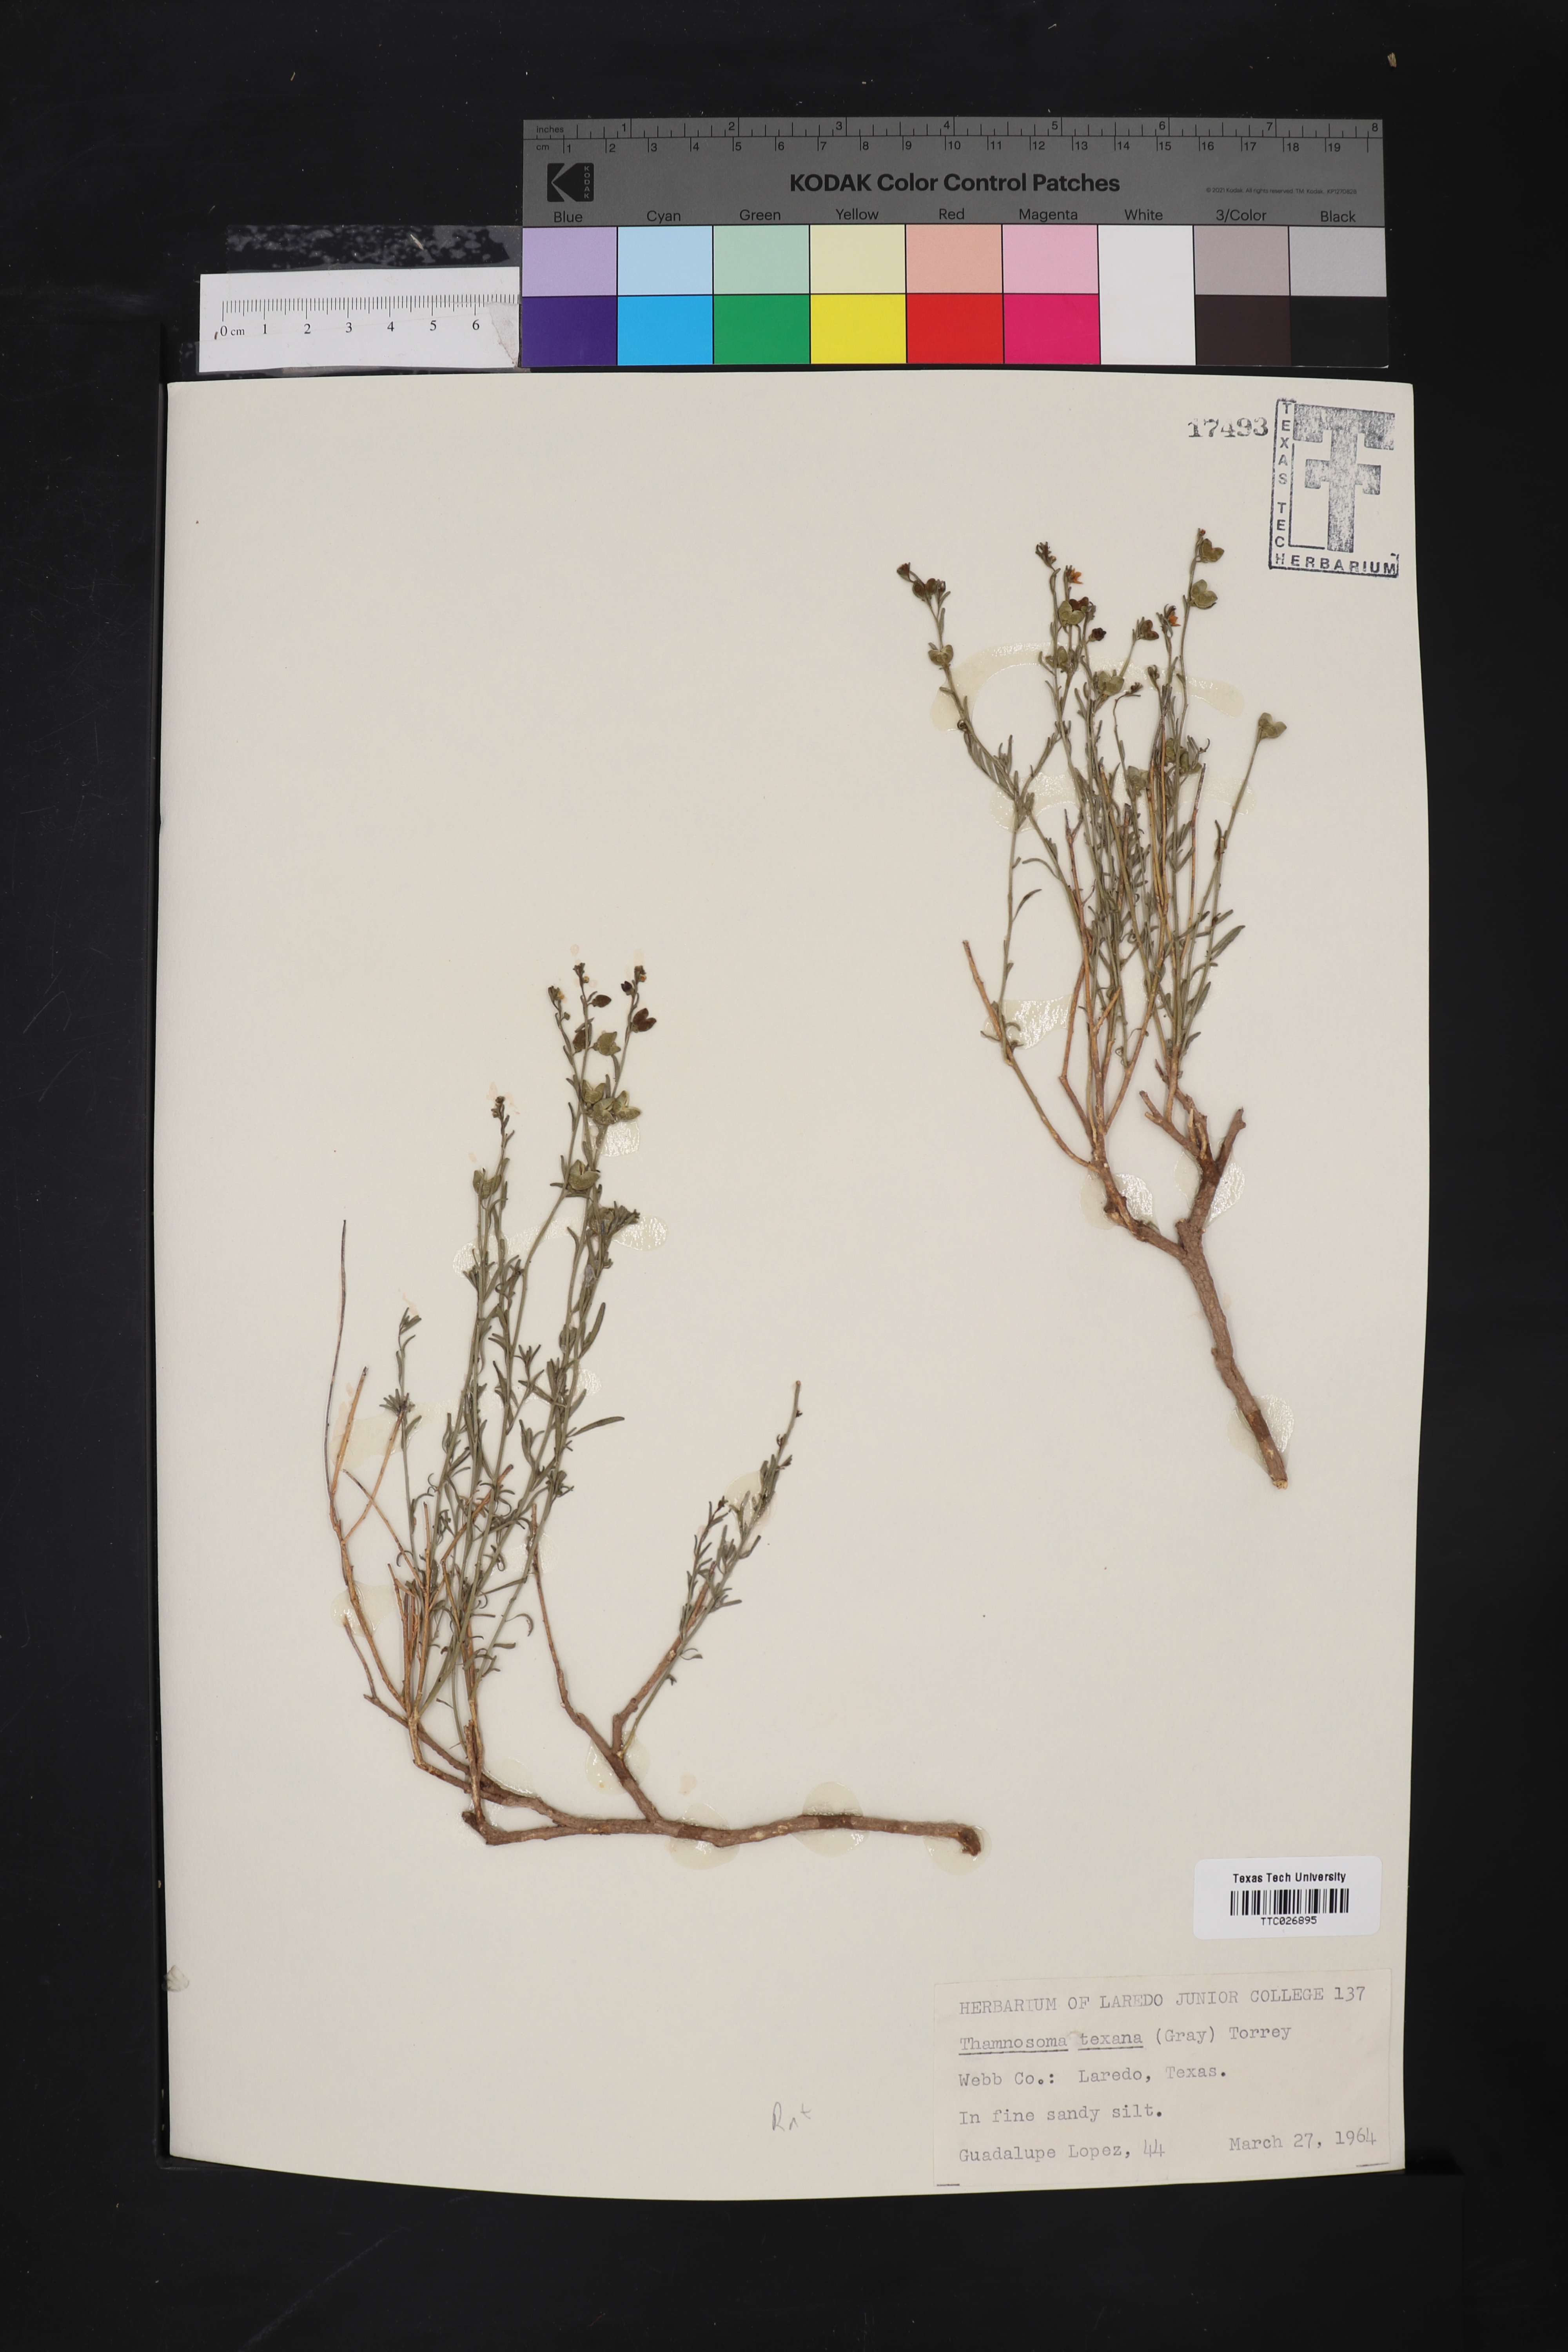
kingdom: Plantae
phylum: Tracheophyta
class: Magnoliopsida
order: Sapindales
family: Rutaceae
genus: Thamnosma
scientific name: Thamnosma texana
